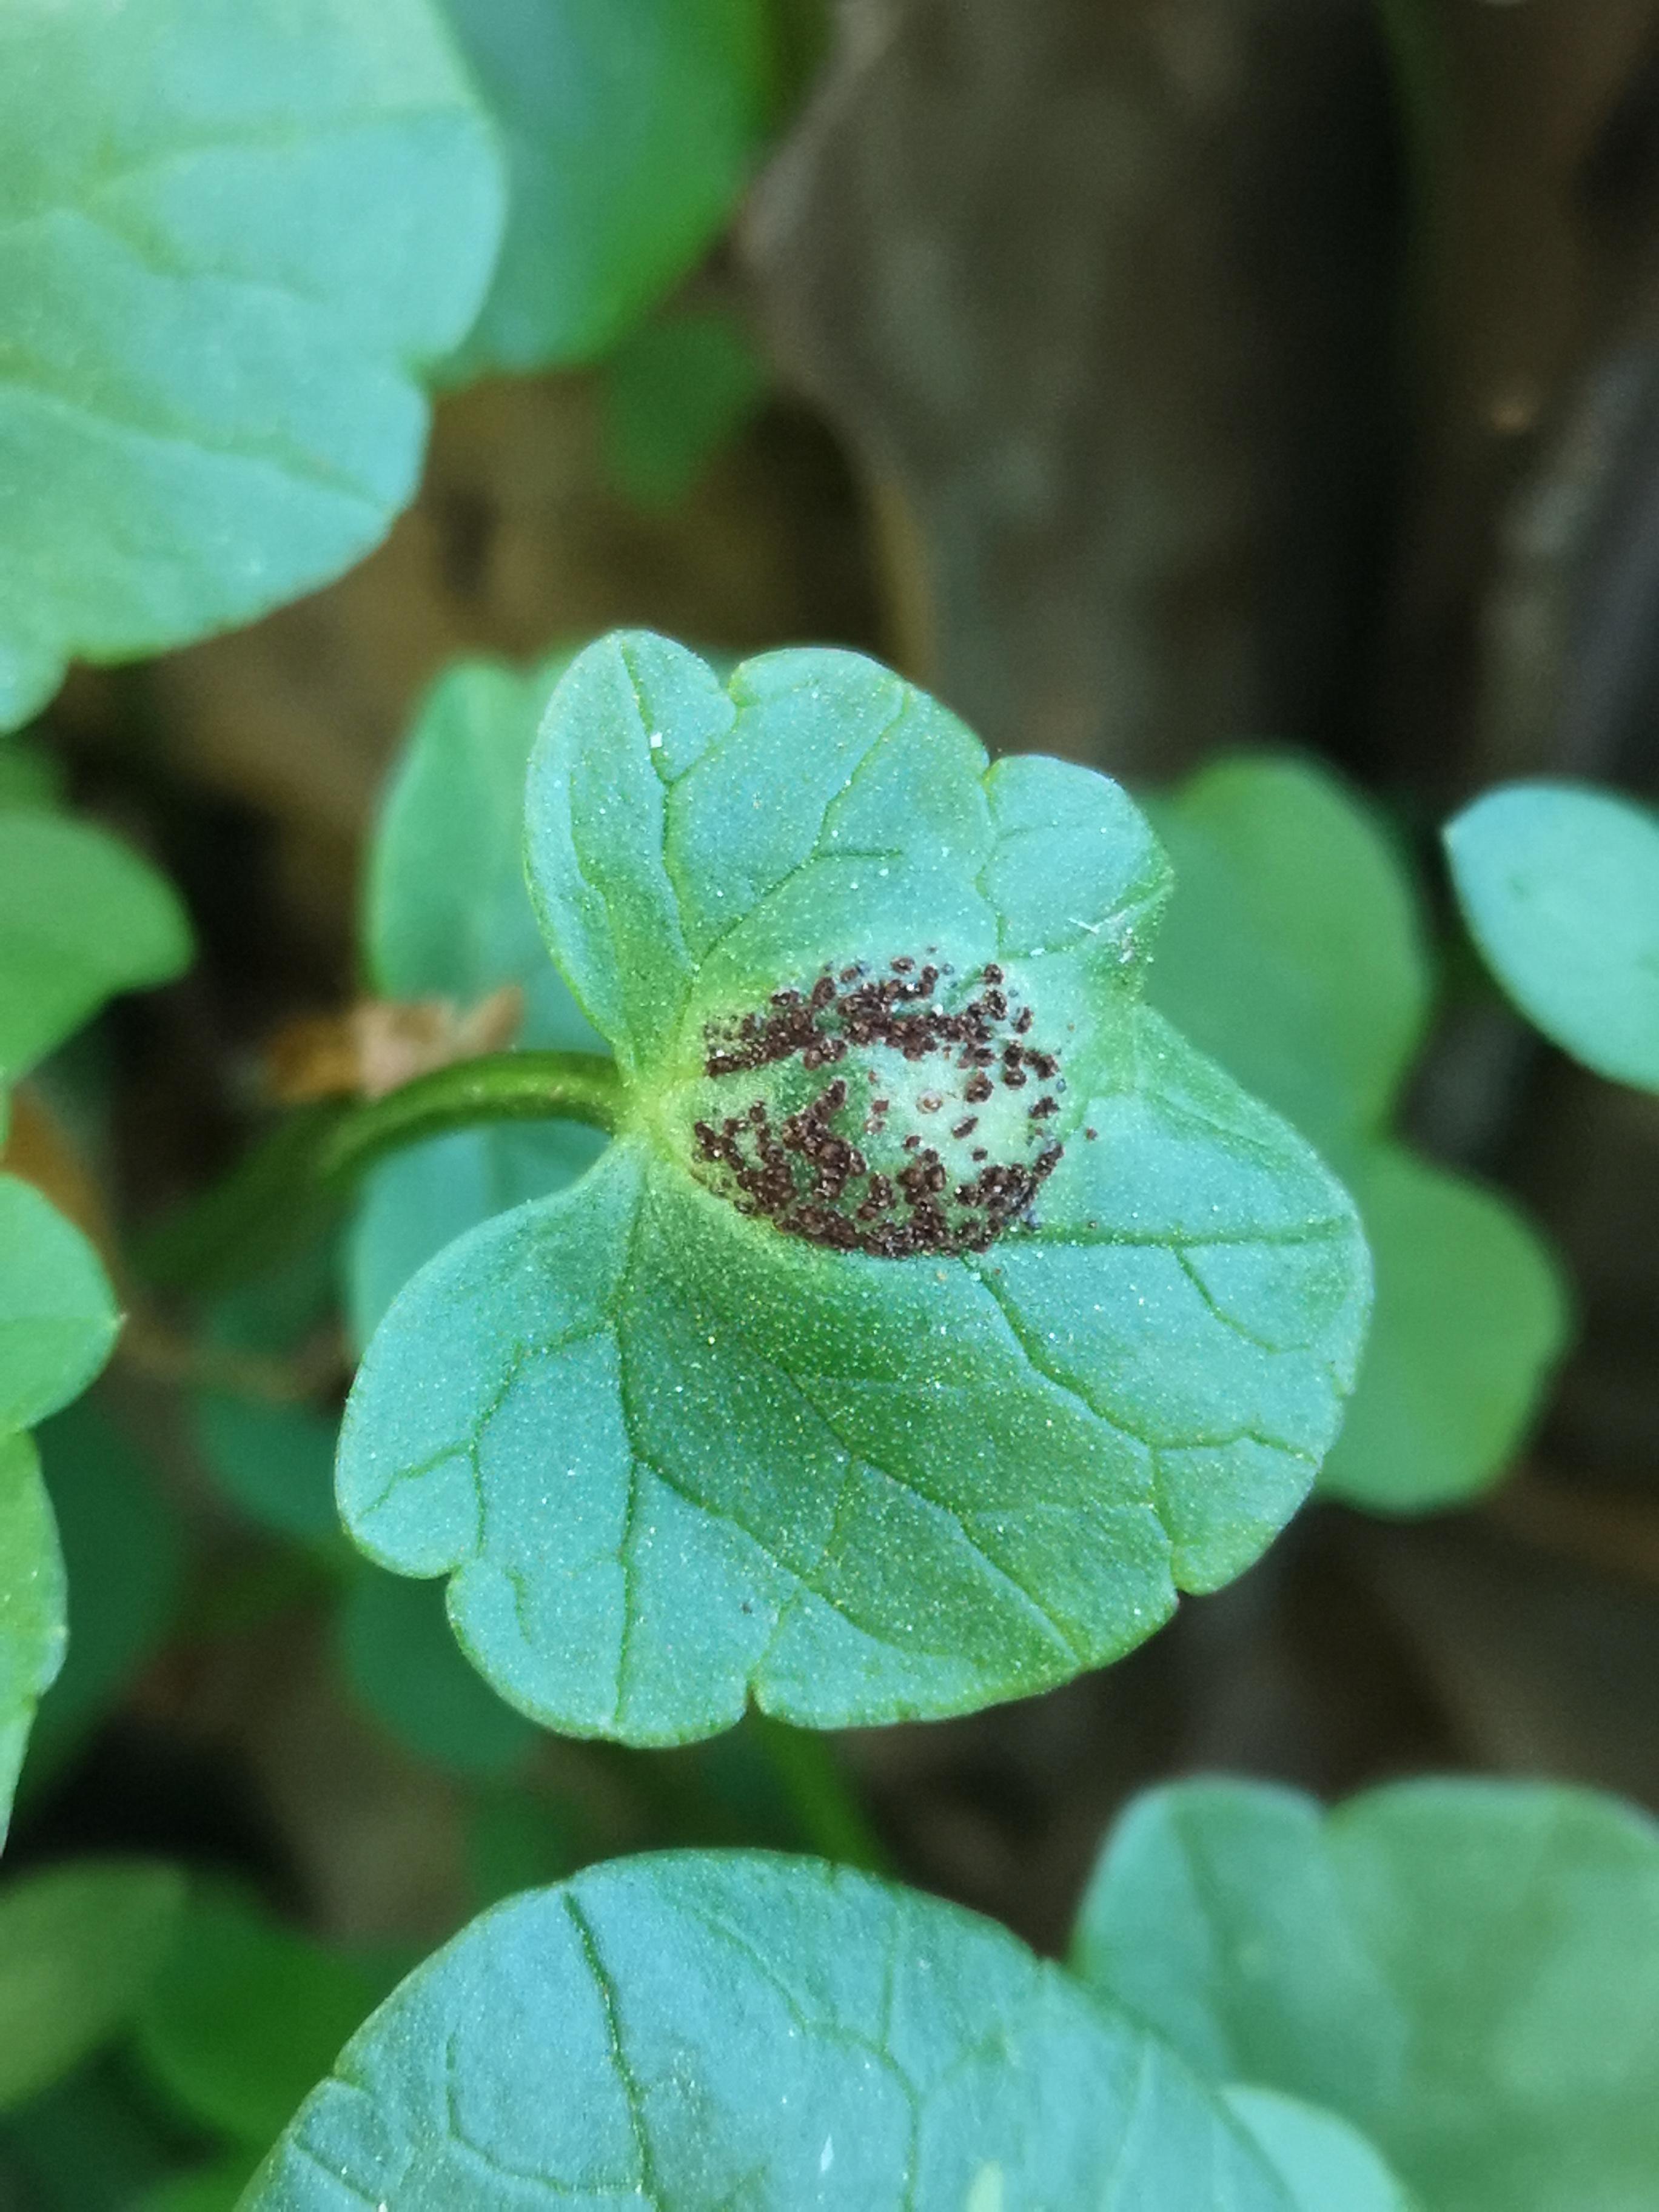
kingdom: Fungi
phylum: Basidiomycota
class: Pucciniomycetes
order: Pucciniales
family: Pucciniaceae
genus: Uromyces
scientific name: Uromyces ficariae
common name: vorterod-encellerust
